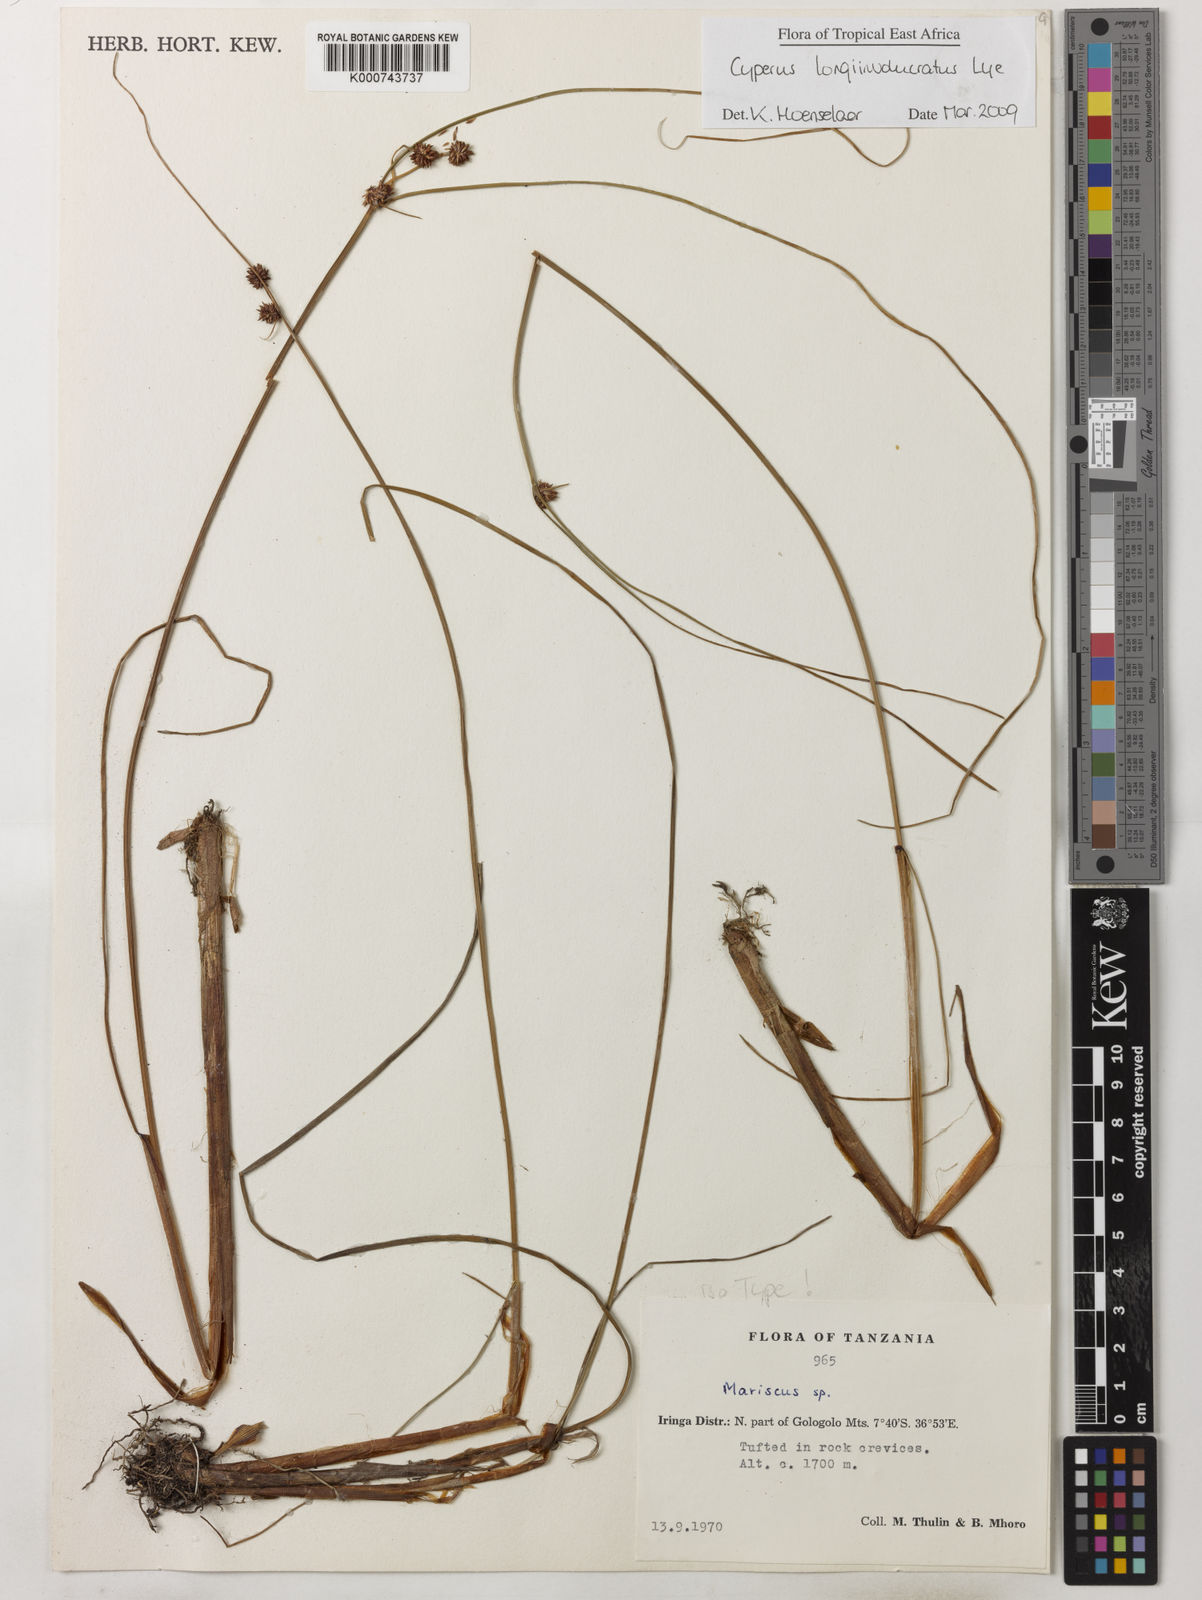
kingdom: Plantae
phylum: Tracheophyta
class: Liliopsida
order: Poales
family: Cyperaceae
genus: Cyperus
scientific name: Cyperus longi-involucratus
